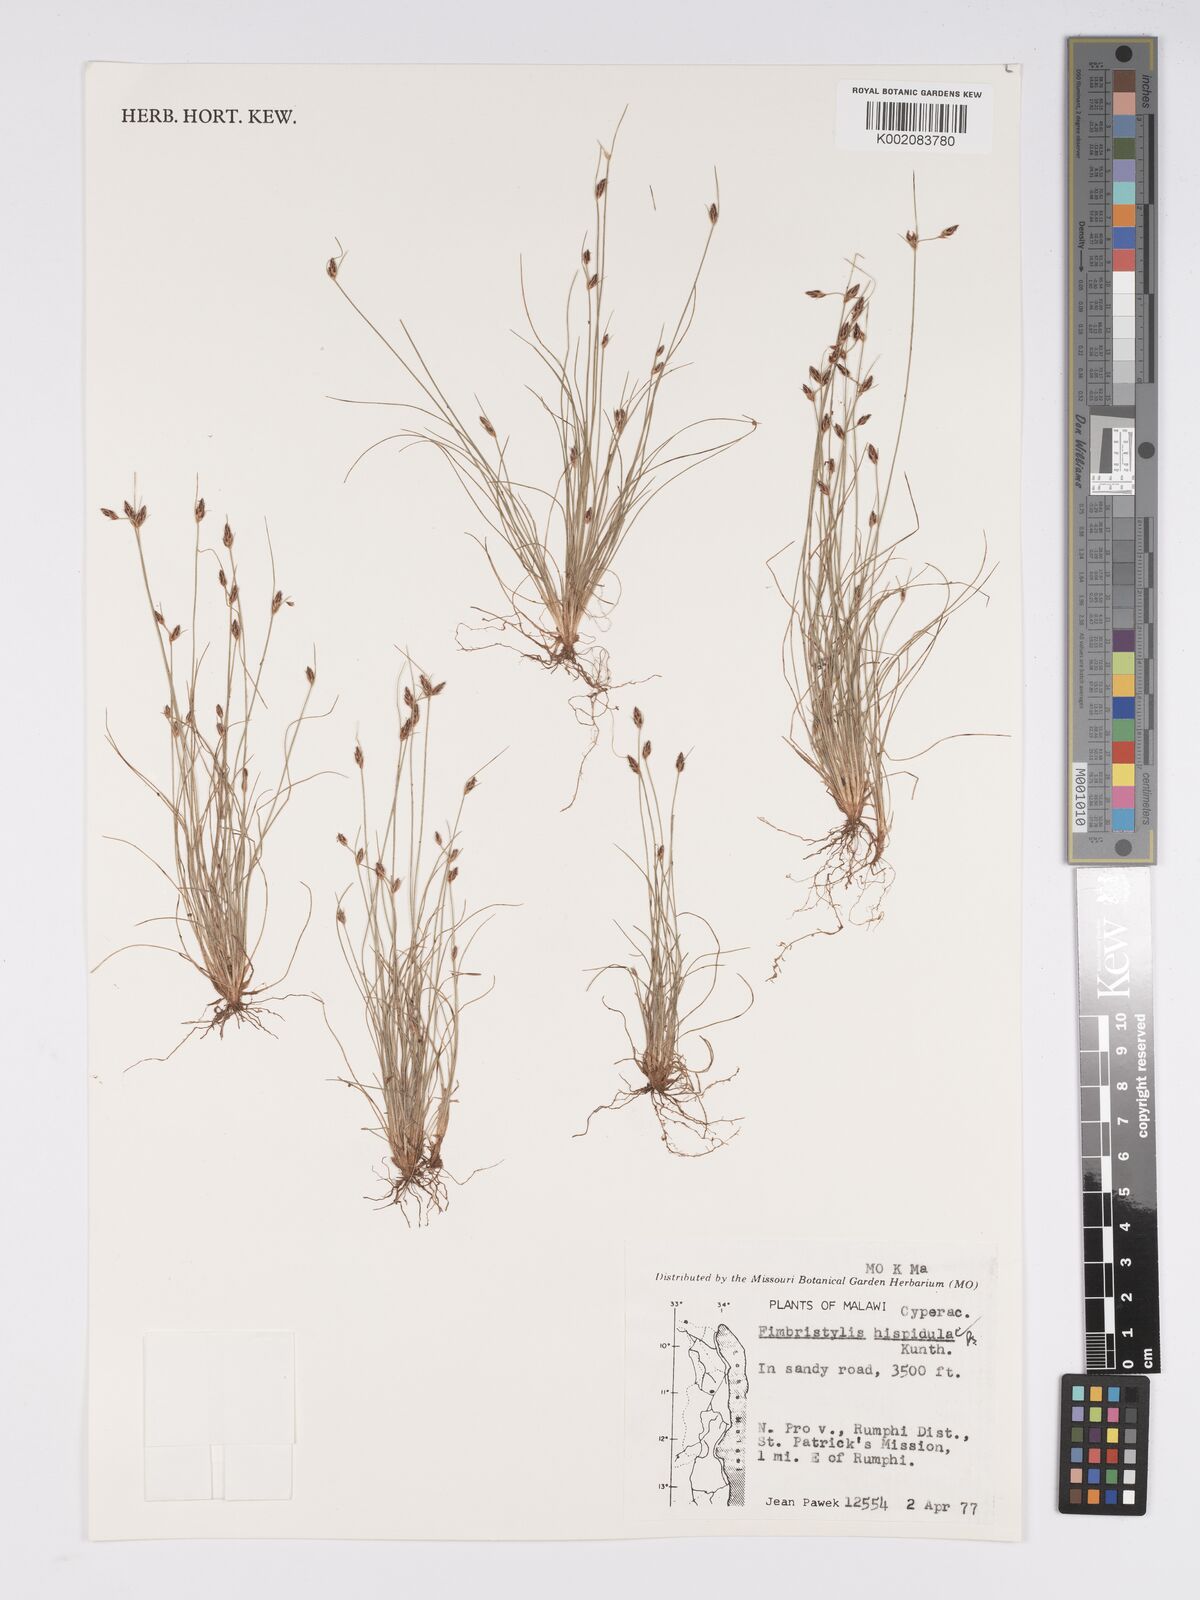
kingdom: Plantae
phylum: Tracheophyta
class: Liliopsida
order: Poales
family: Cyperaceae
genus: Bulbostylis
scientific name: Bulbostylis hispidula
